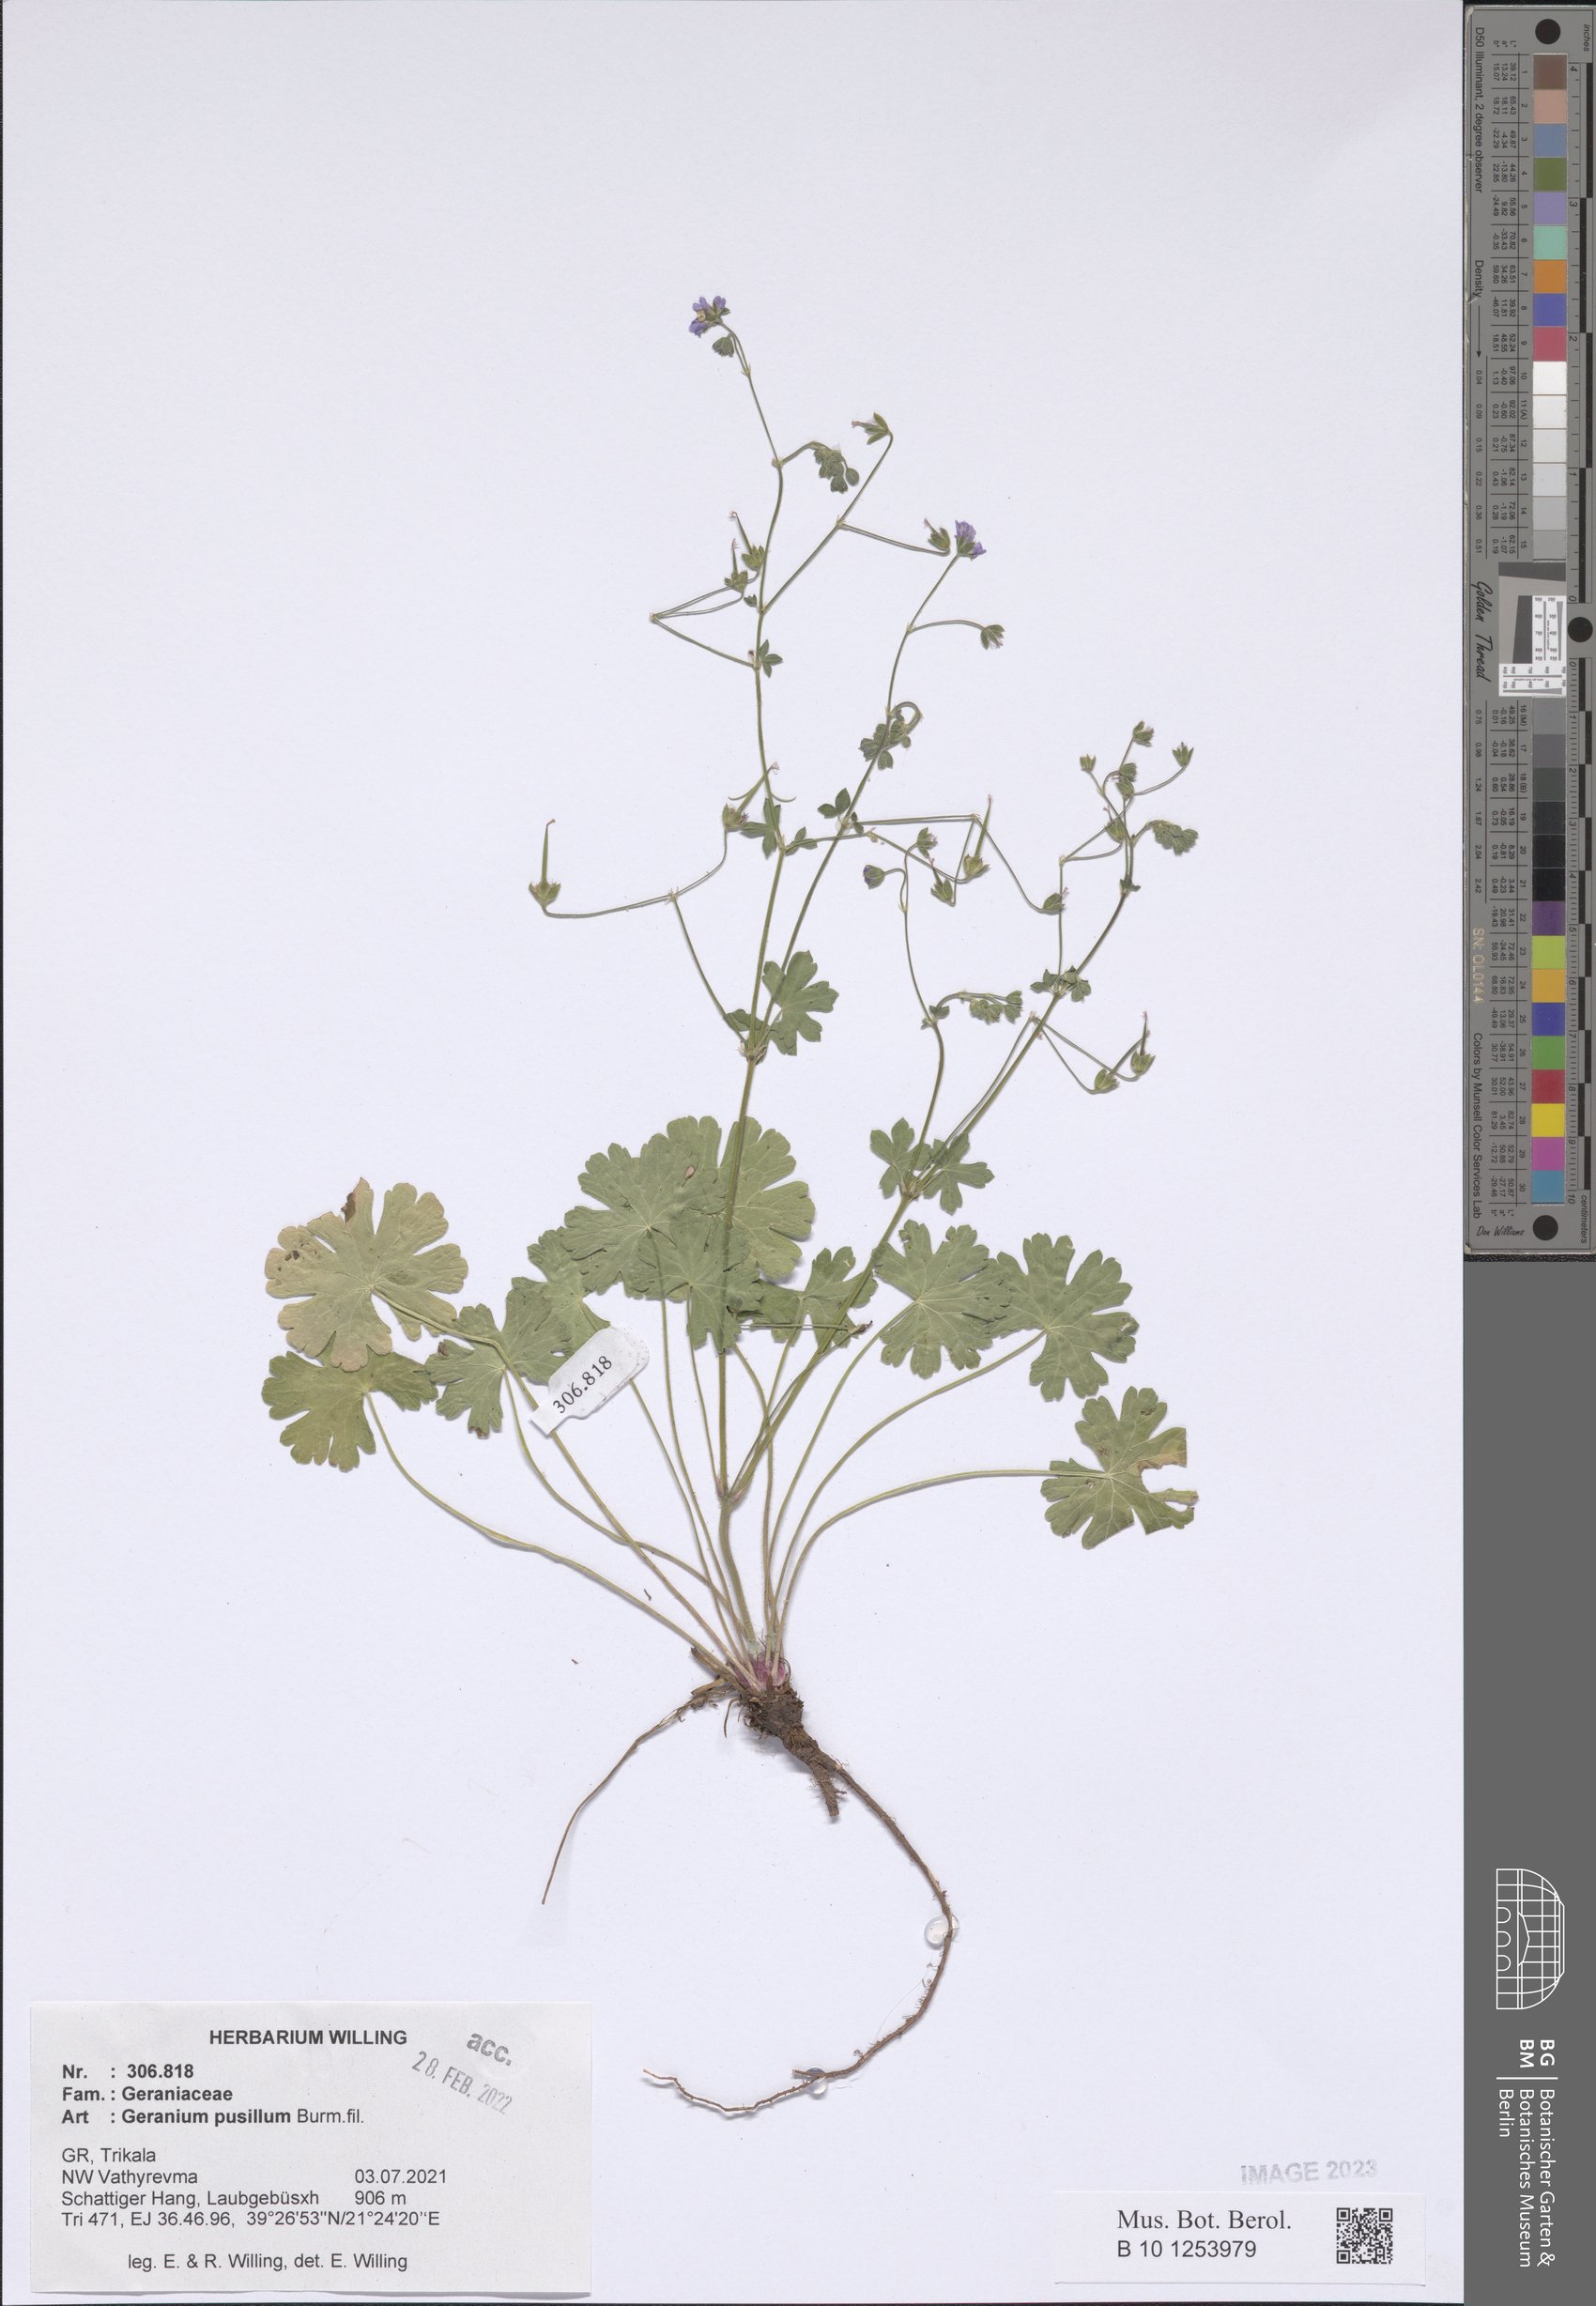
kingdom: Plantae
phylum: Tracheophyta
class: Magnoliopsida
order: Geraniales
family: Geraniaceae
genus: Geranium
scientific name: Geranium pusillum
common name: Small geranium
